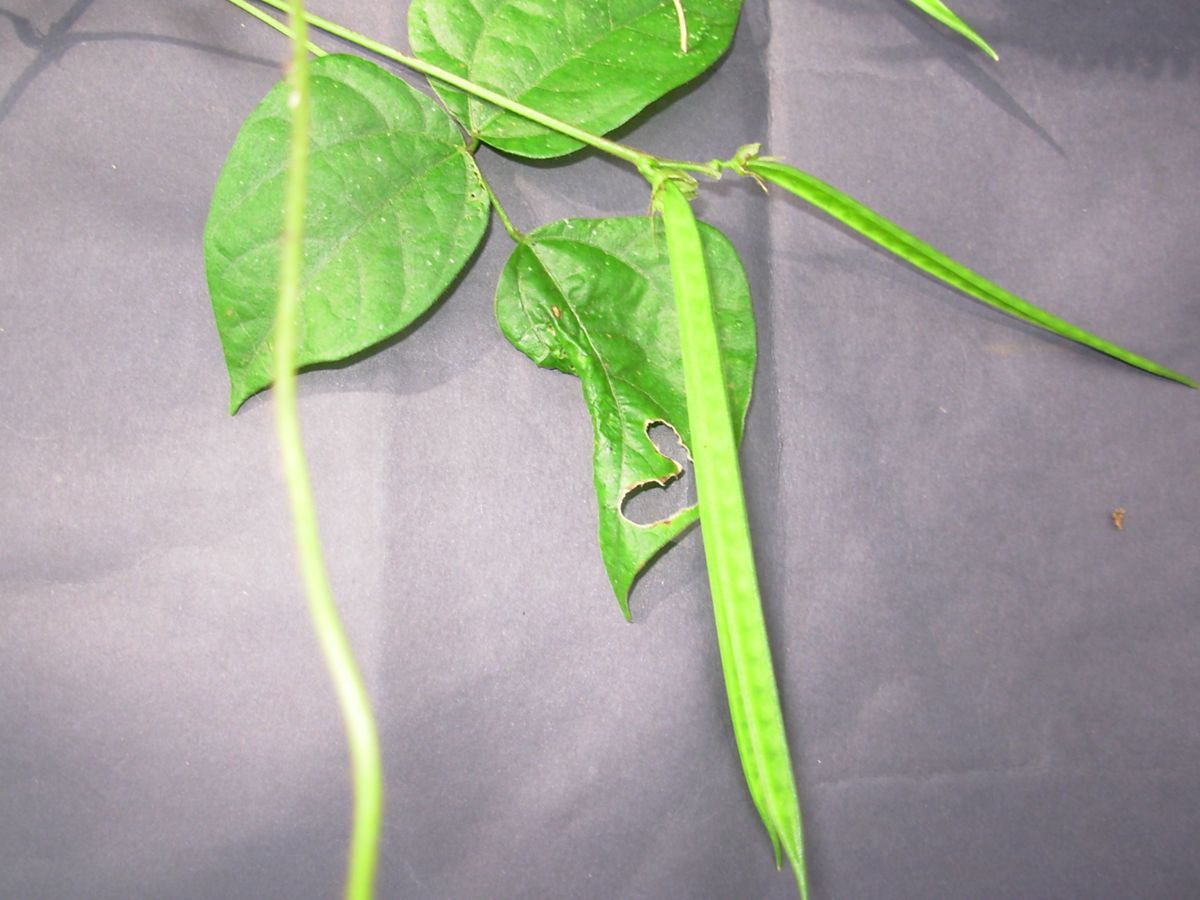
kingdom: Plantae
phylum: Tracheophyta
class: Magnoliopsida
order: Fabales
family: Fabaceae
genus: Helicotropis
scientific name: Helicotropis linearis
